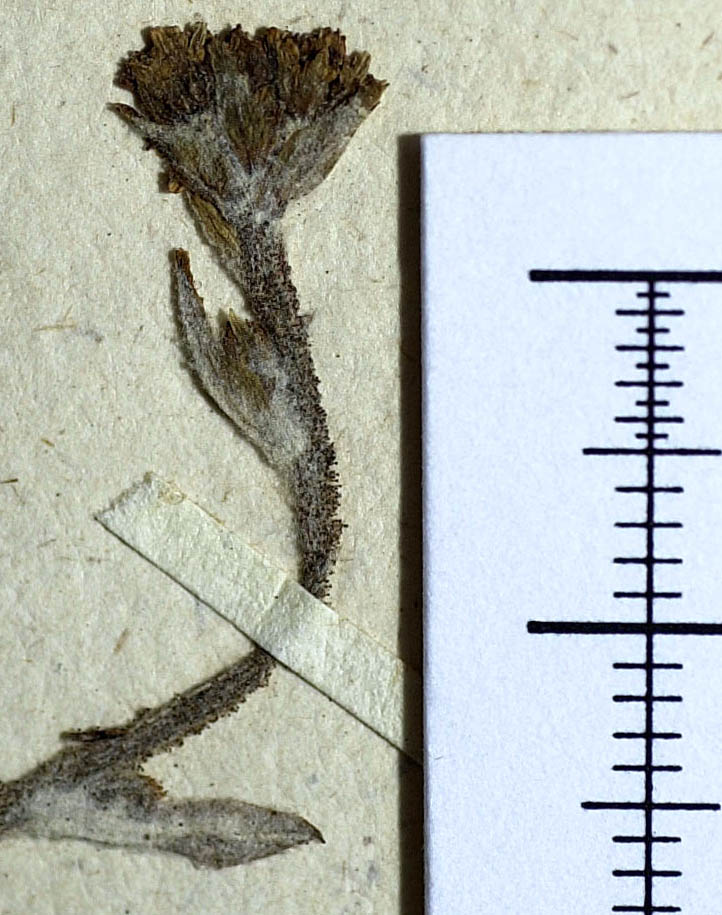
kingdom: Plantae
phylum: Tracheophyta
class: Magnoliopsida
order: Asterales
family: Asteraceae
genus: Adenocaulon
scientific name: Adenocaulon chilense
